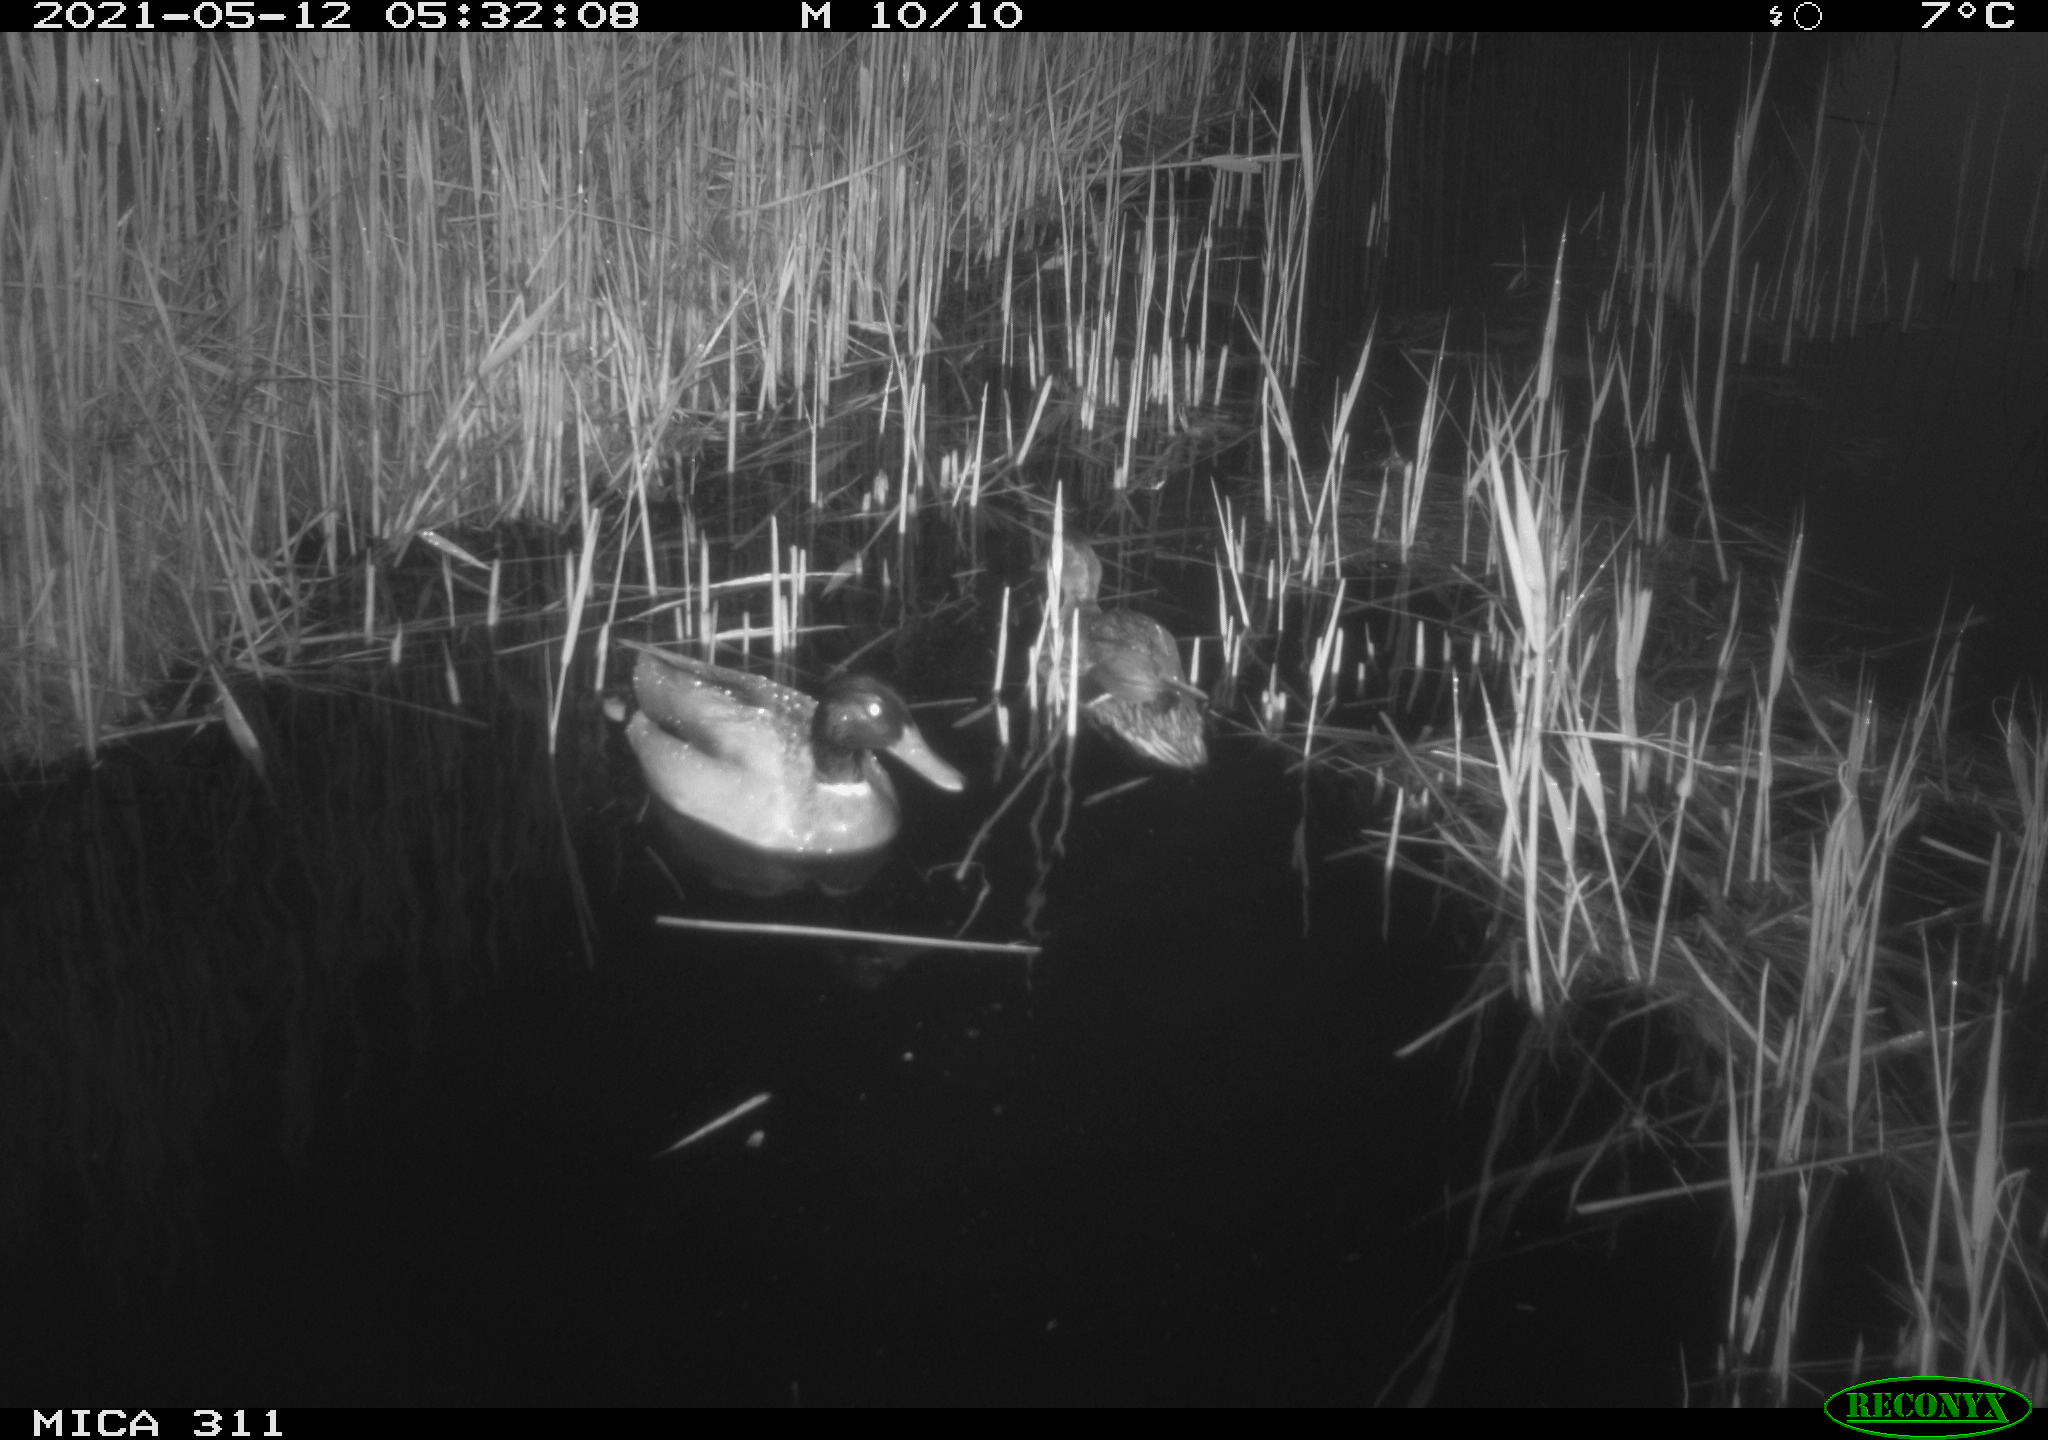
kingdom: Animalia
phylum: Chordata
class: Aves
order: Anseriformes
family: Anatidae
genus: Anas
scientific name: Anas platyrhynchos
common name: Mallard
